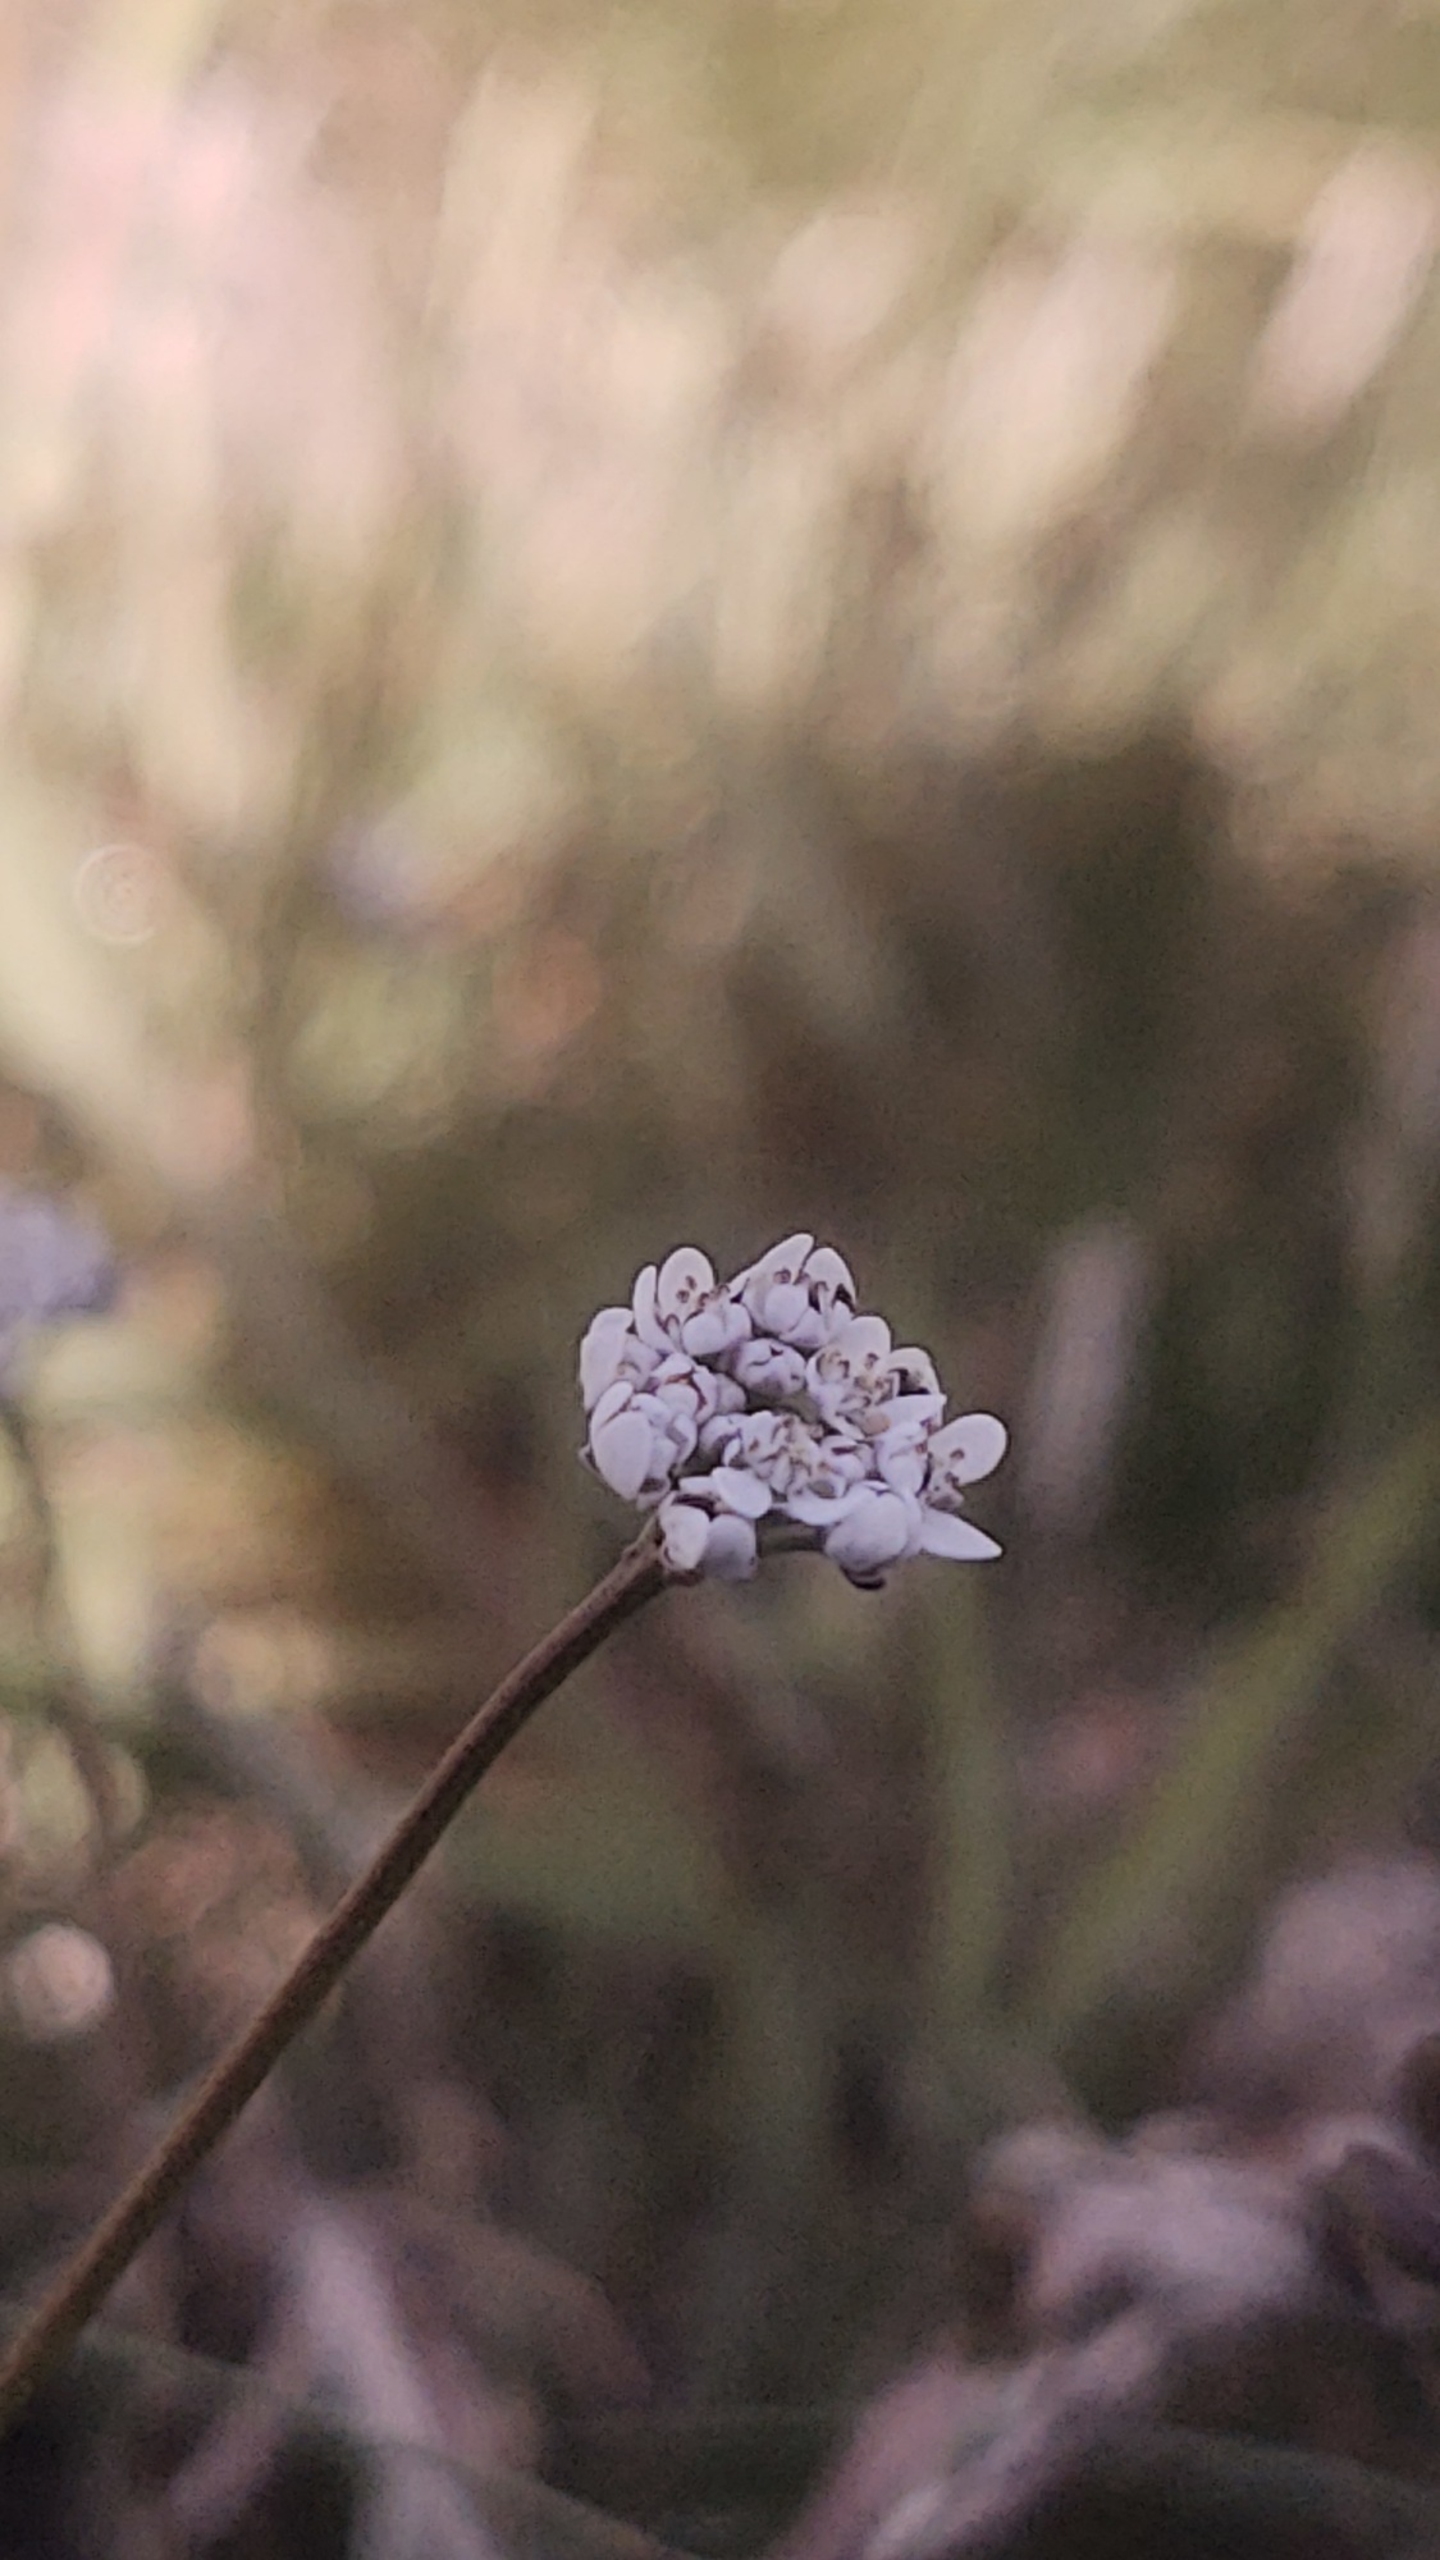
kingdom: Plantae
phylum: Tracheophyta
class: Magnoliopsida
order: Brassicales
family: Brassicaceae
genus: Teesdalia
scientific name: Teesdalia nudicaulis
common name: Flipkrave
